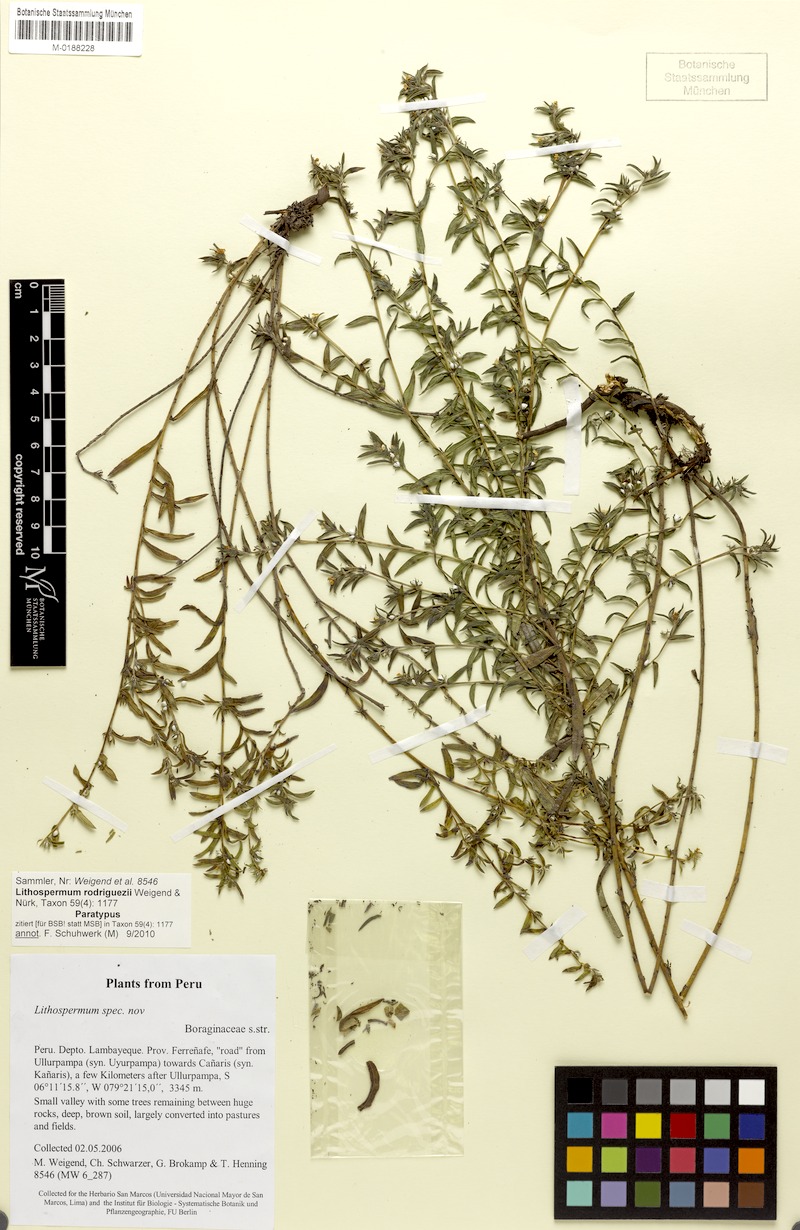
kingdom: Plantae
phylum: Tracheophyta
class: Magnoliopsida
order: Boraginales
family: Boraginaceae
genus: Lithospermum
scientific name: Lithospermum rodriguezii
